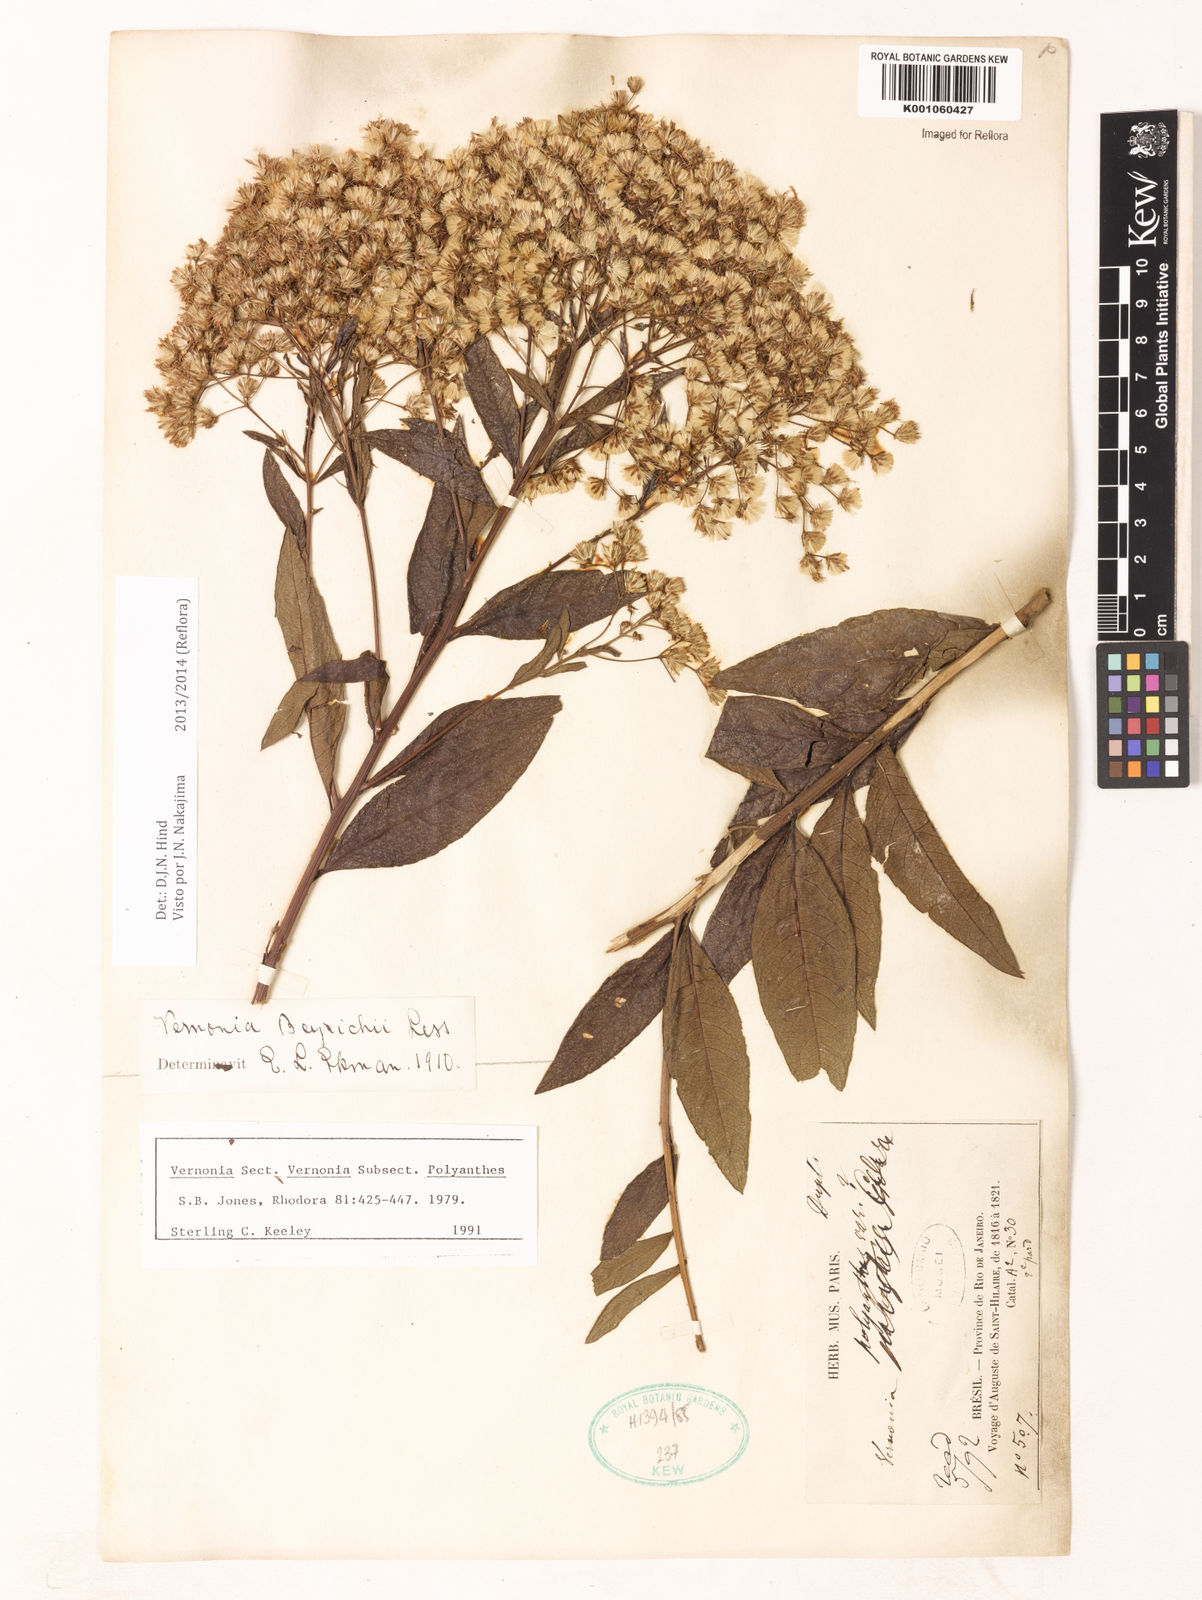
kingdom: Plantae
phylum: Tracheophyta
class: Magnoliopsida
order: Asterales
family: Asteraceae
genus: Vernonanthura
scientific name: Vernonanthura beyrichii
